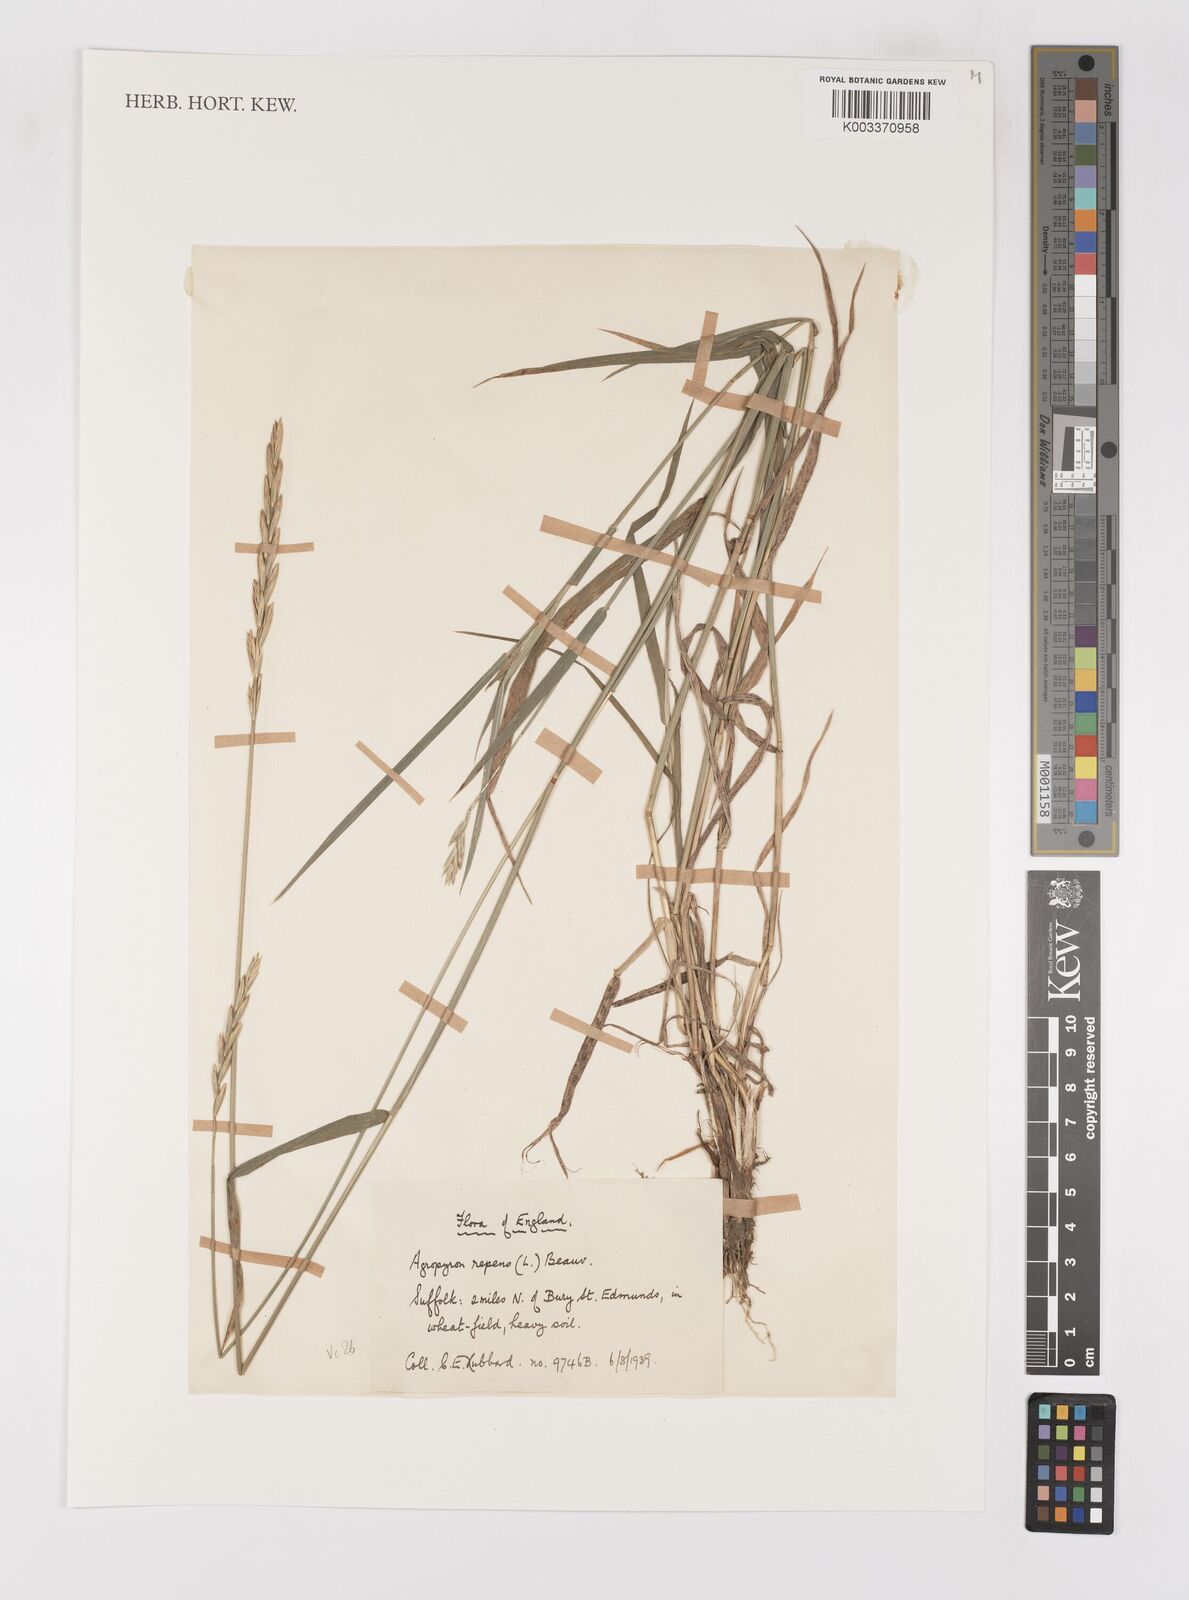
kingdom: Plantae
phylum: Tracheophyta
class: Liliopsida
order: Poales
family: Poaceae
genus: Elymus
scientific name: Elymus repens
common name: Quackgrass
